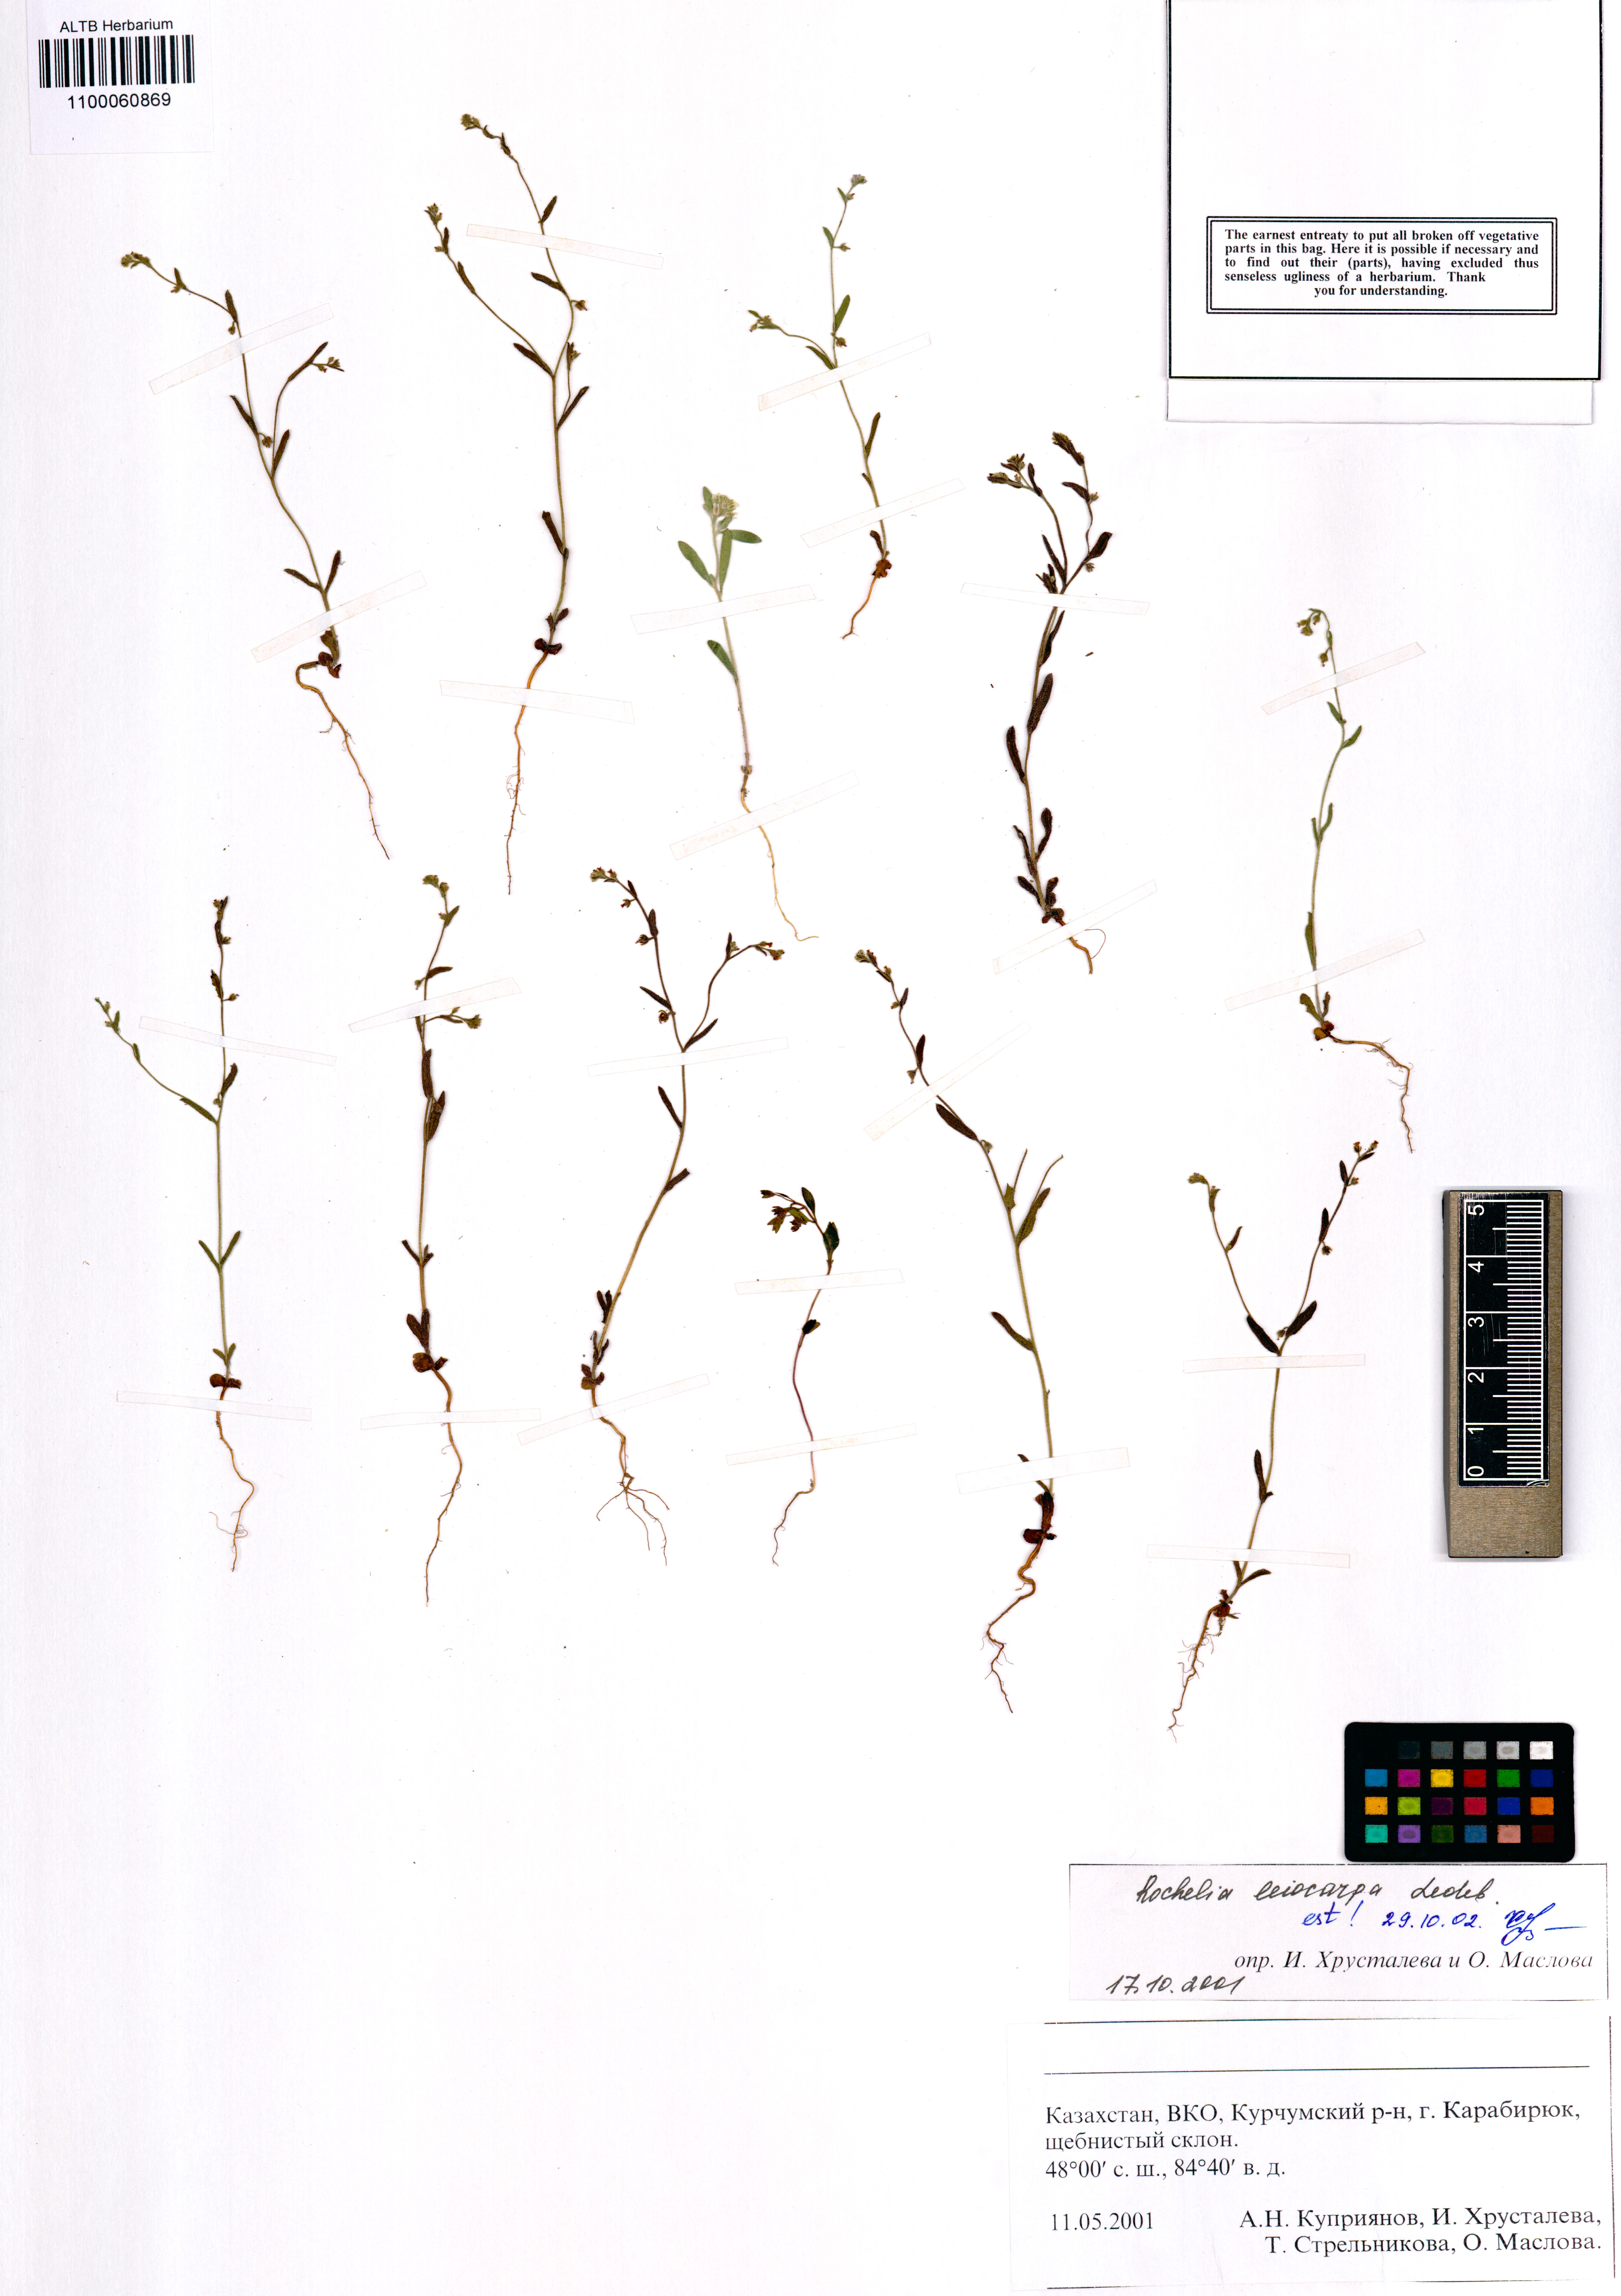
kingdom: Plantae
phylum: Tracheophyta
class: Magnoliopsida
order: Boraginales
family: Boraginaceae
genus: Rochelia
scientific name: Rochelia leiocarpa
